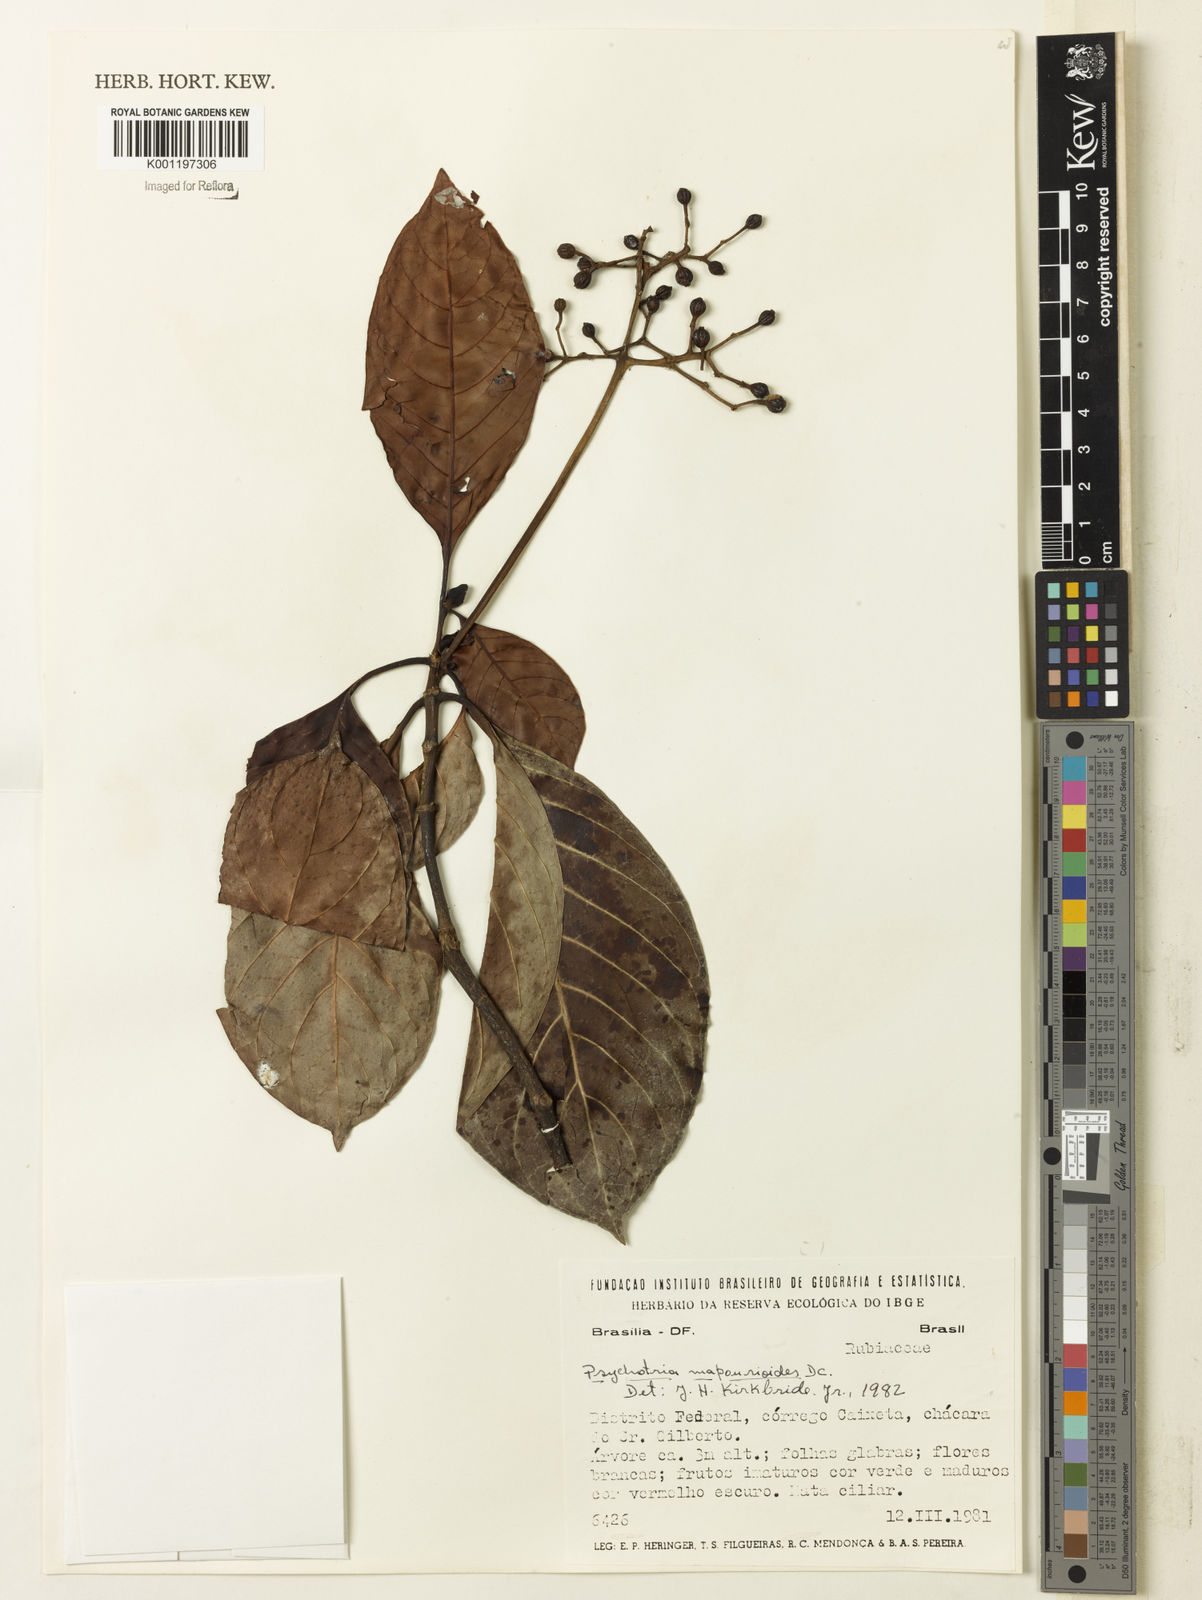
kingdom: Plantae
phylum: Tracheophyta
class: Magnoliopsida
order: Gentianales
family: Rubiaceae
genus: Psychotria
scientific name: Psychotria pedunculosa
